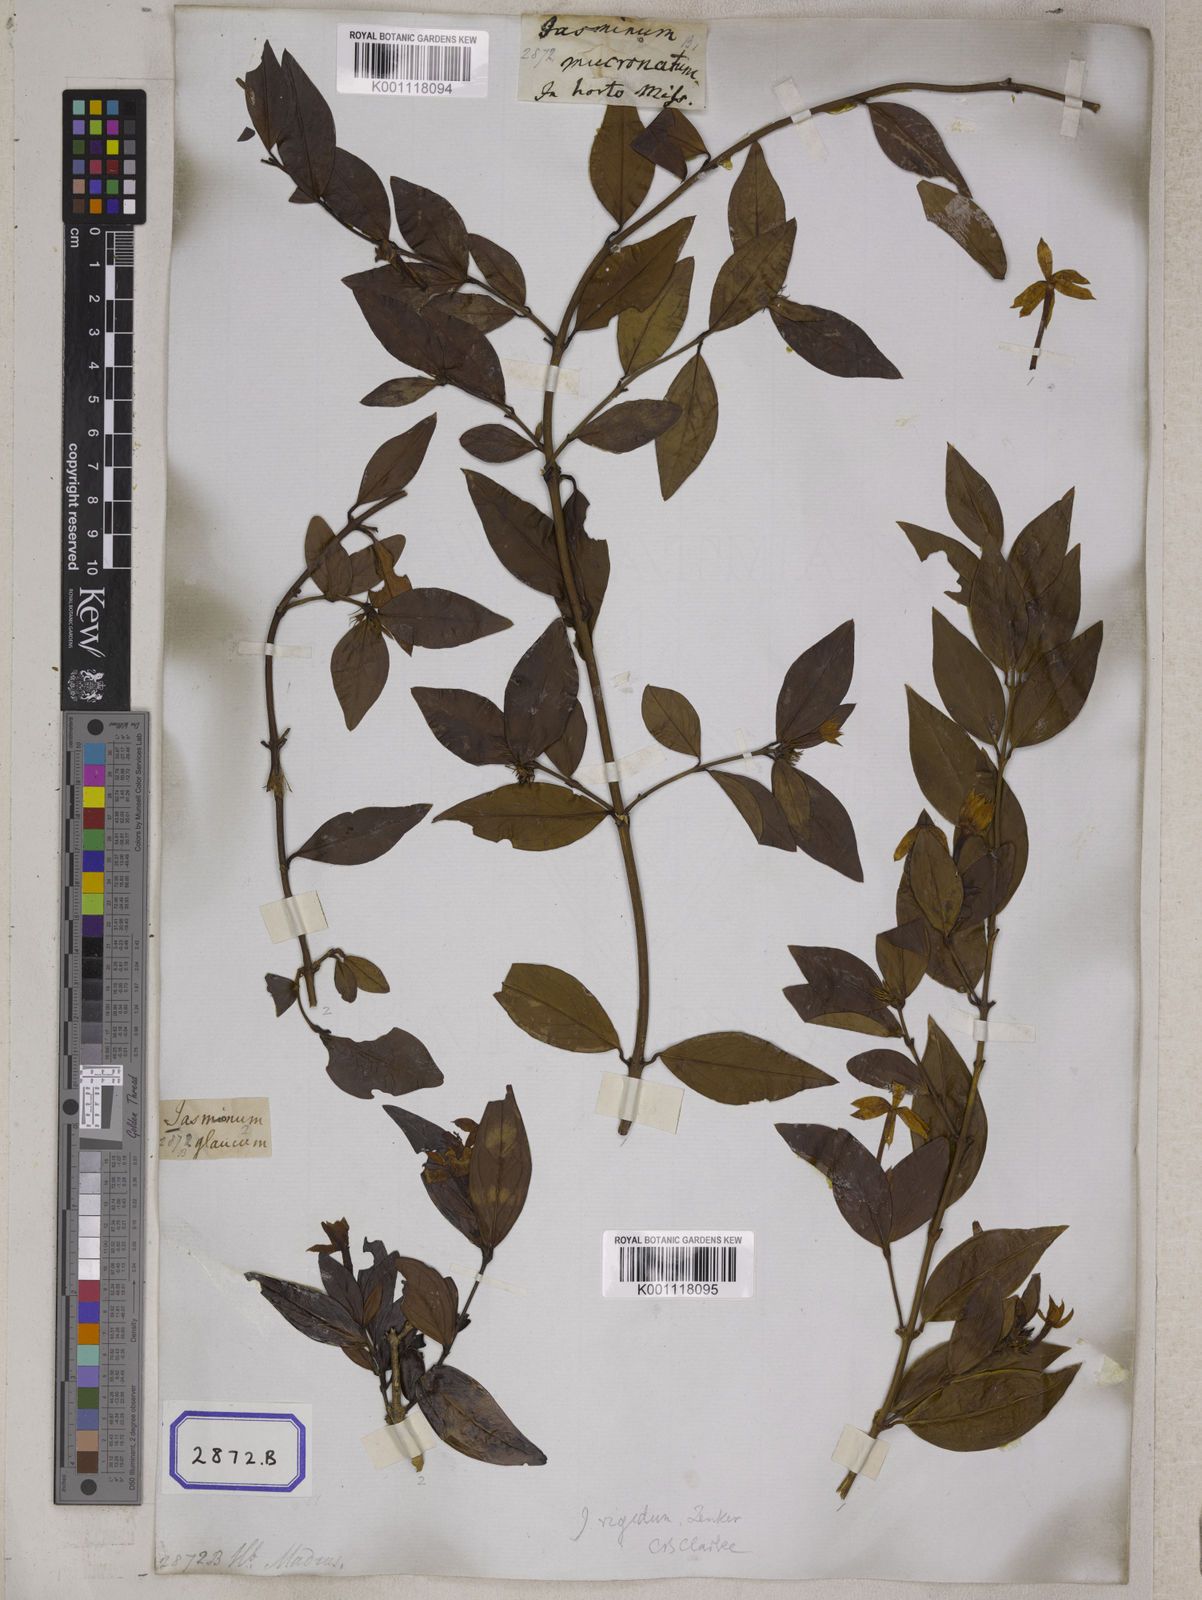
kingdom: Plantae
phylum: Tracheophyta
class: Magnoliopsida
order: Lamiales
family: Oleaceae
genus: Jasminum
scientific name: Jasminum
